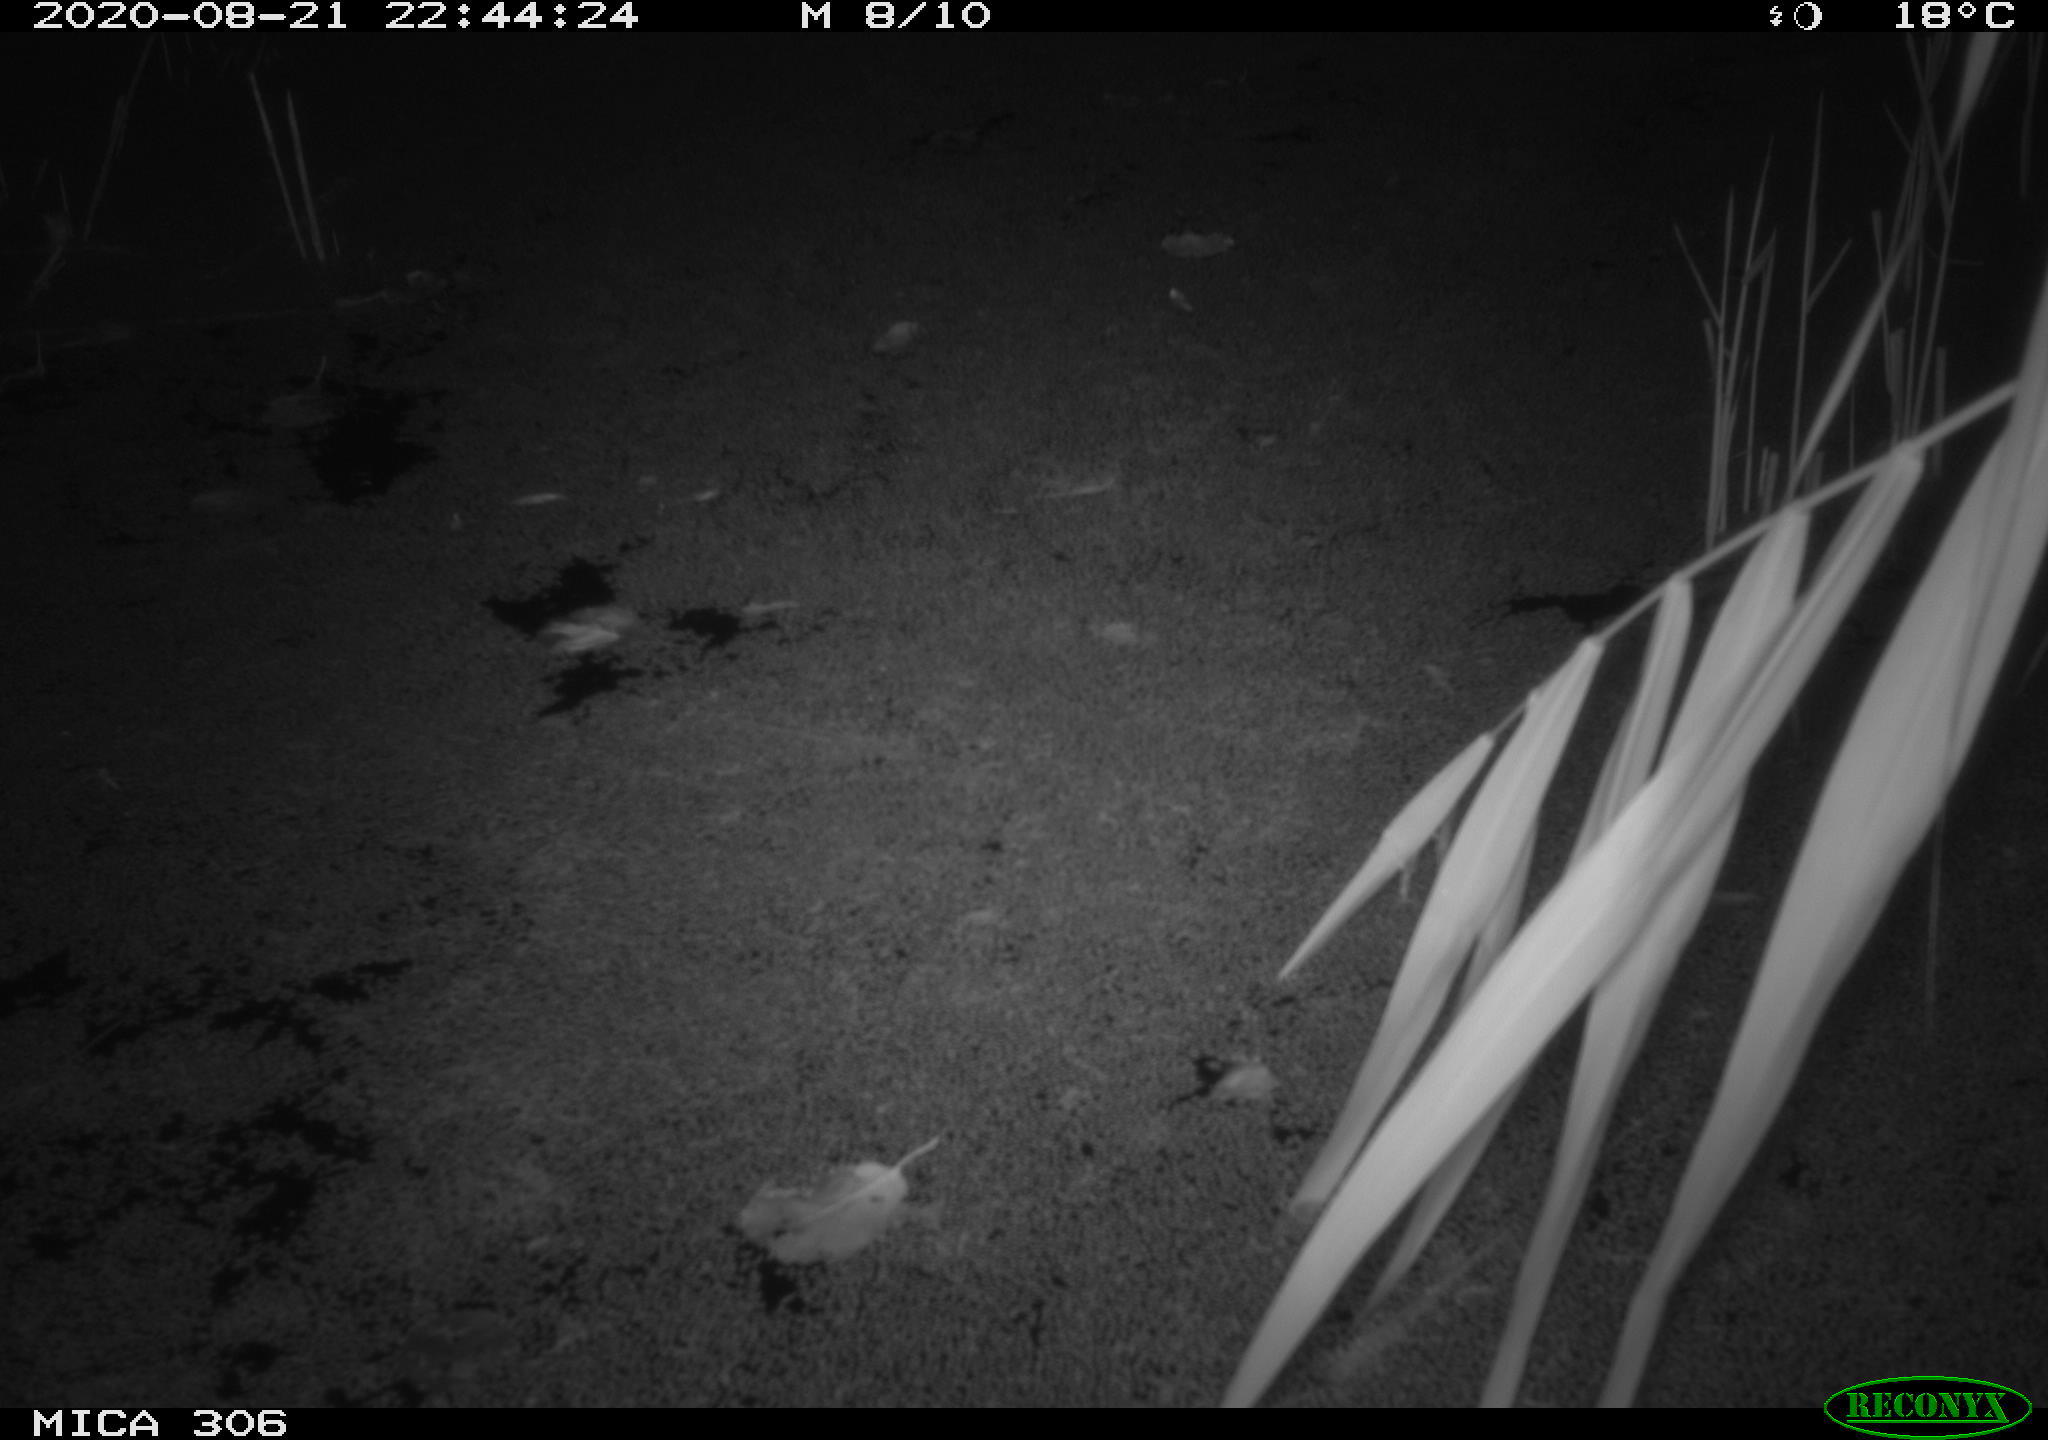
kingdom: Animalia
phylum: Chordata
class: Mammalia
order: Rodentia
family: Muridae
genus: Rattus
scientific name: Rattus norvegicus
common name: Brown rat
